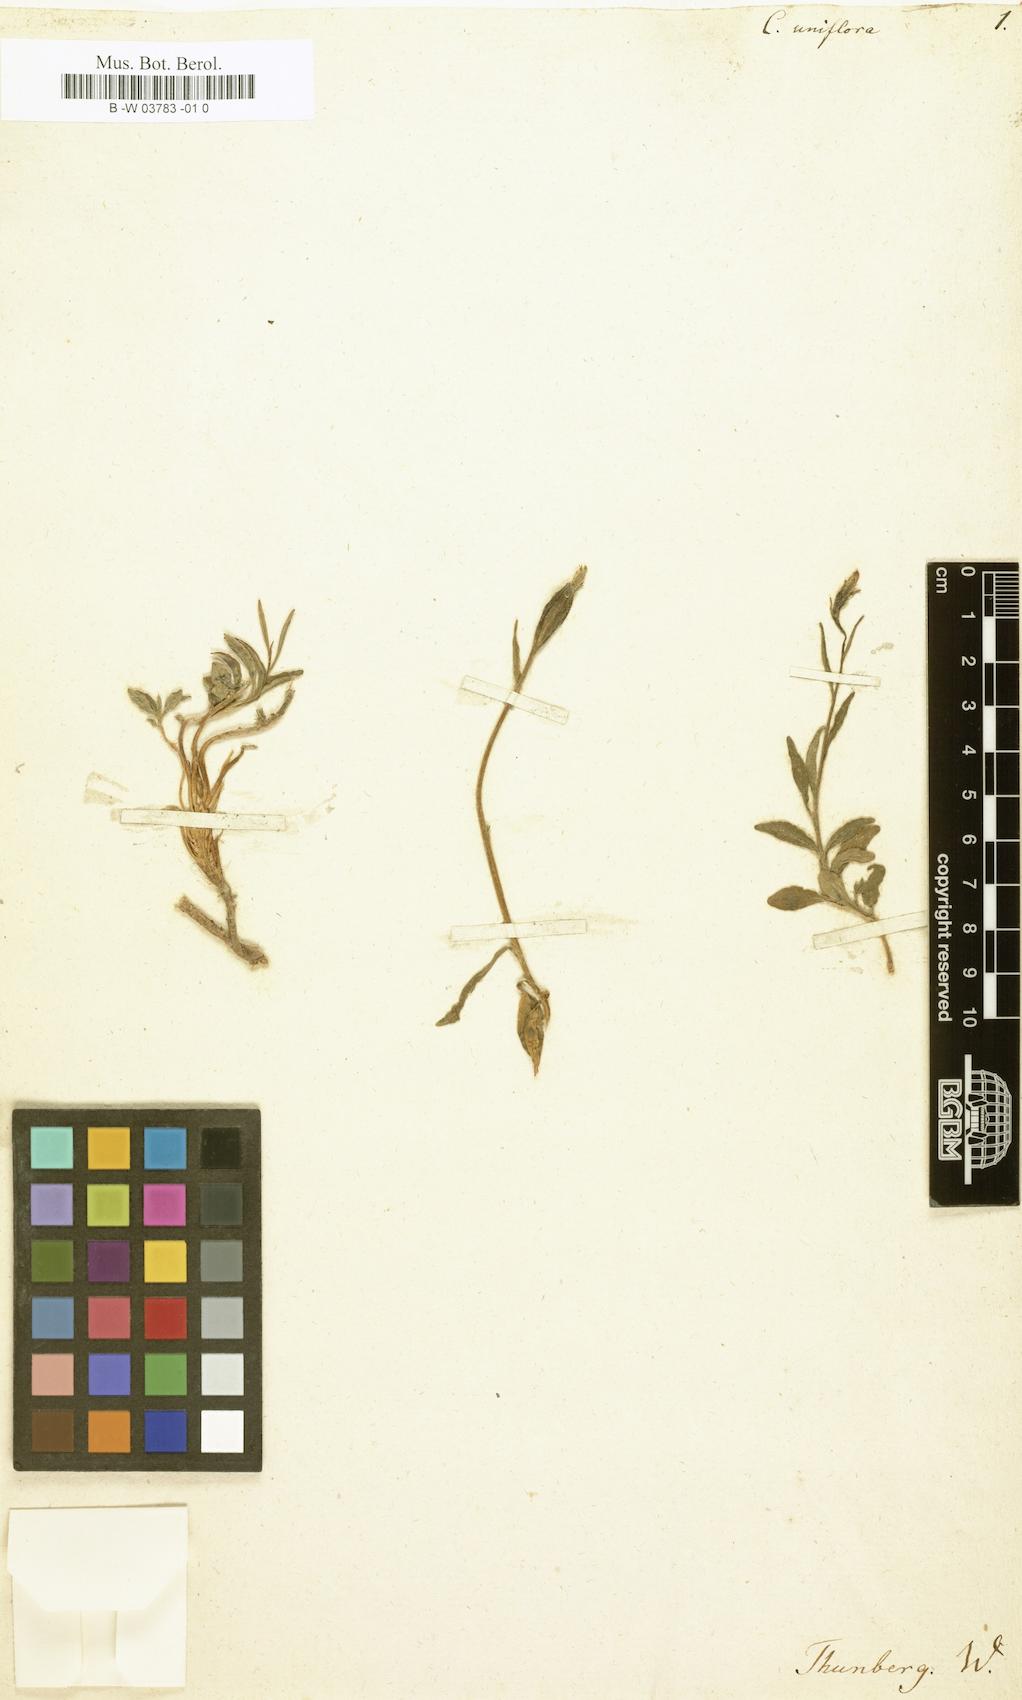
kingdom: Plantae
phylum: Tracheophyta
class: Magnoliopsida
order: Asterales
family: Campanulaceae
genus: Campanula
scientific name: Campanula uniflora
